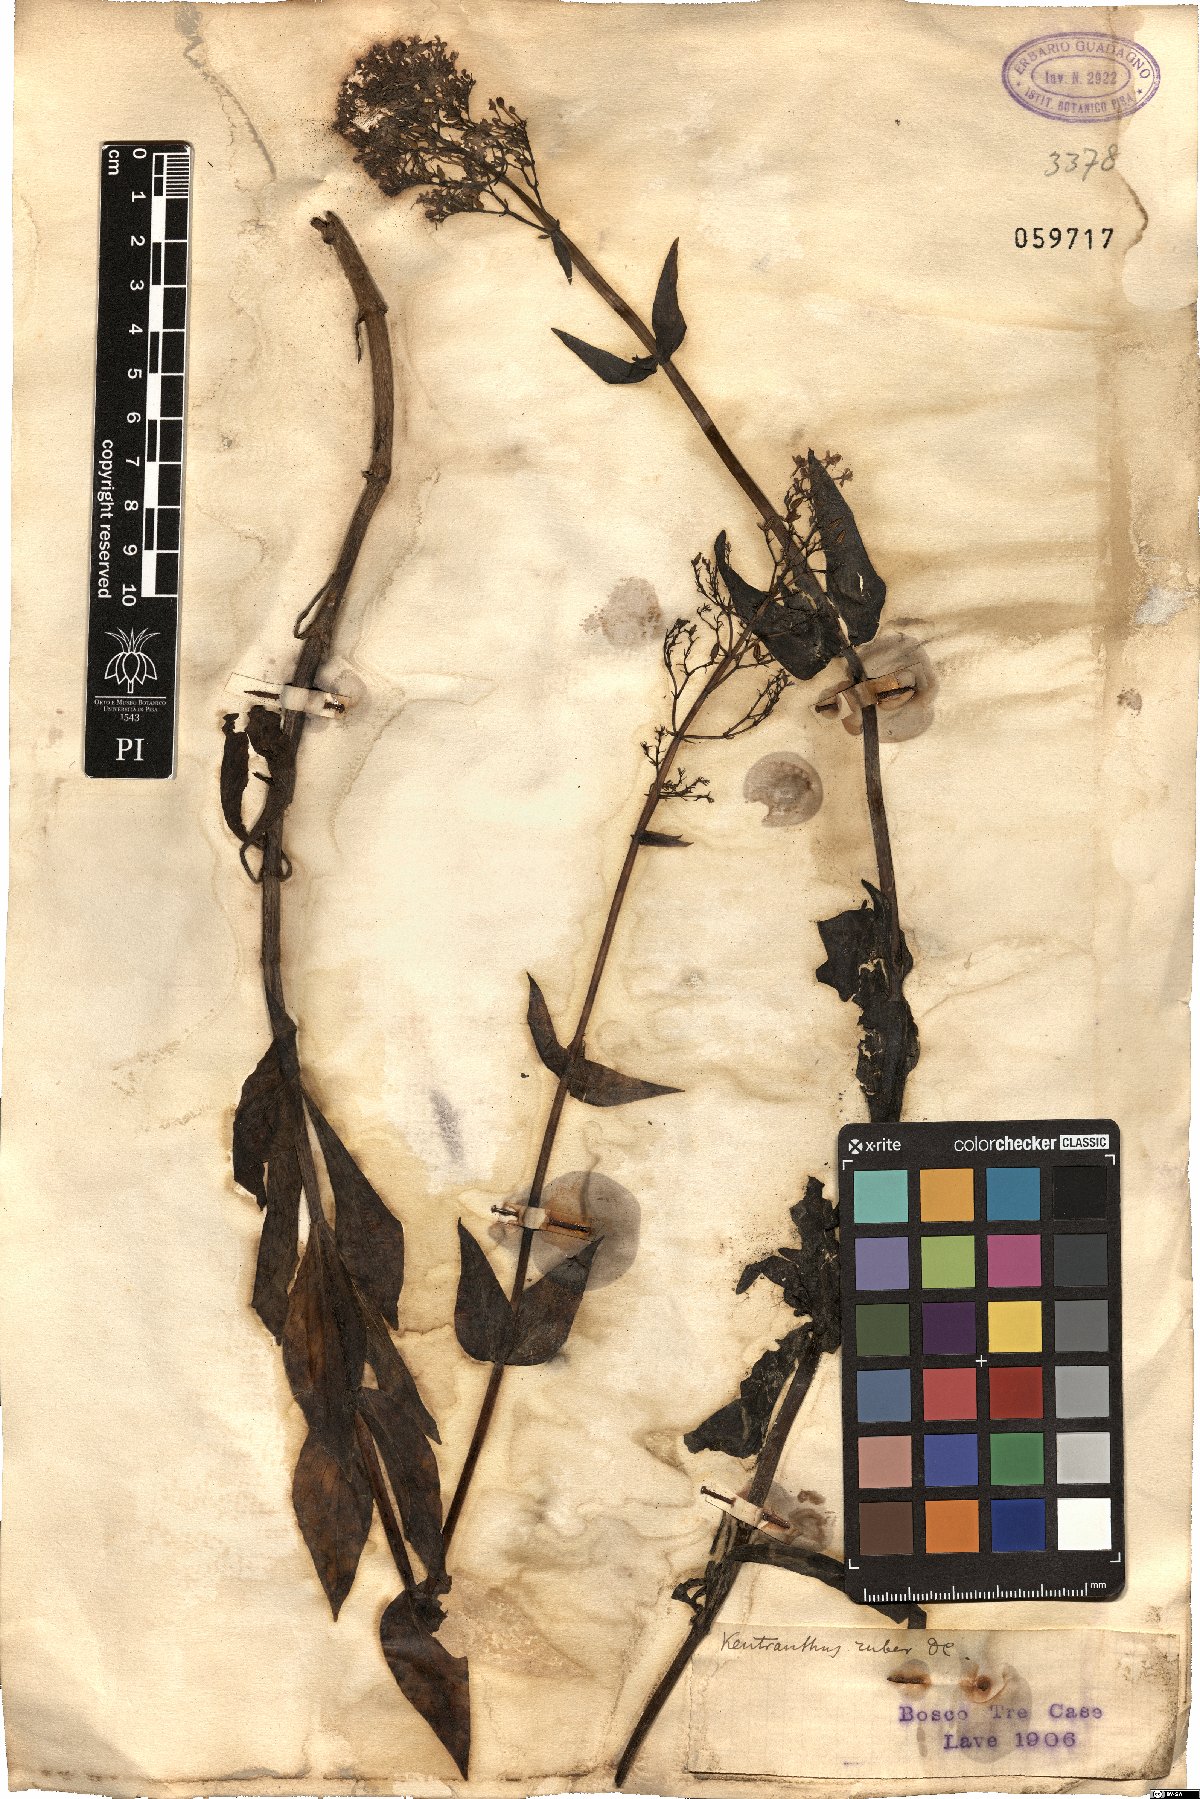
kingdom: Plantae
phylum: Tracheophyta
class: Magnoliopsida
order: Dipsacales
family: Caprifoliaceae
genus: Centranthus
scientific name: Centranthus ruber
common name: Red valerian
